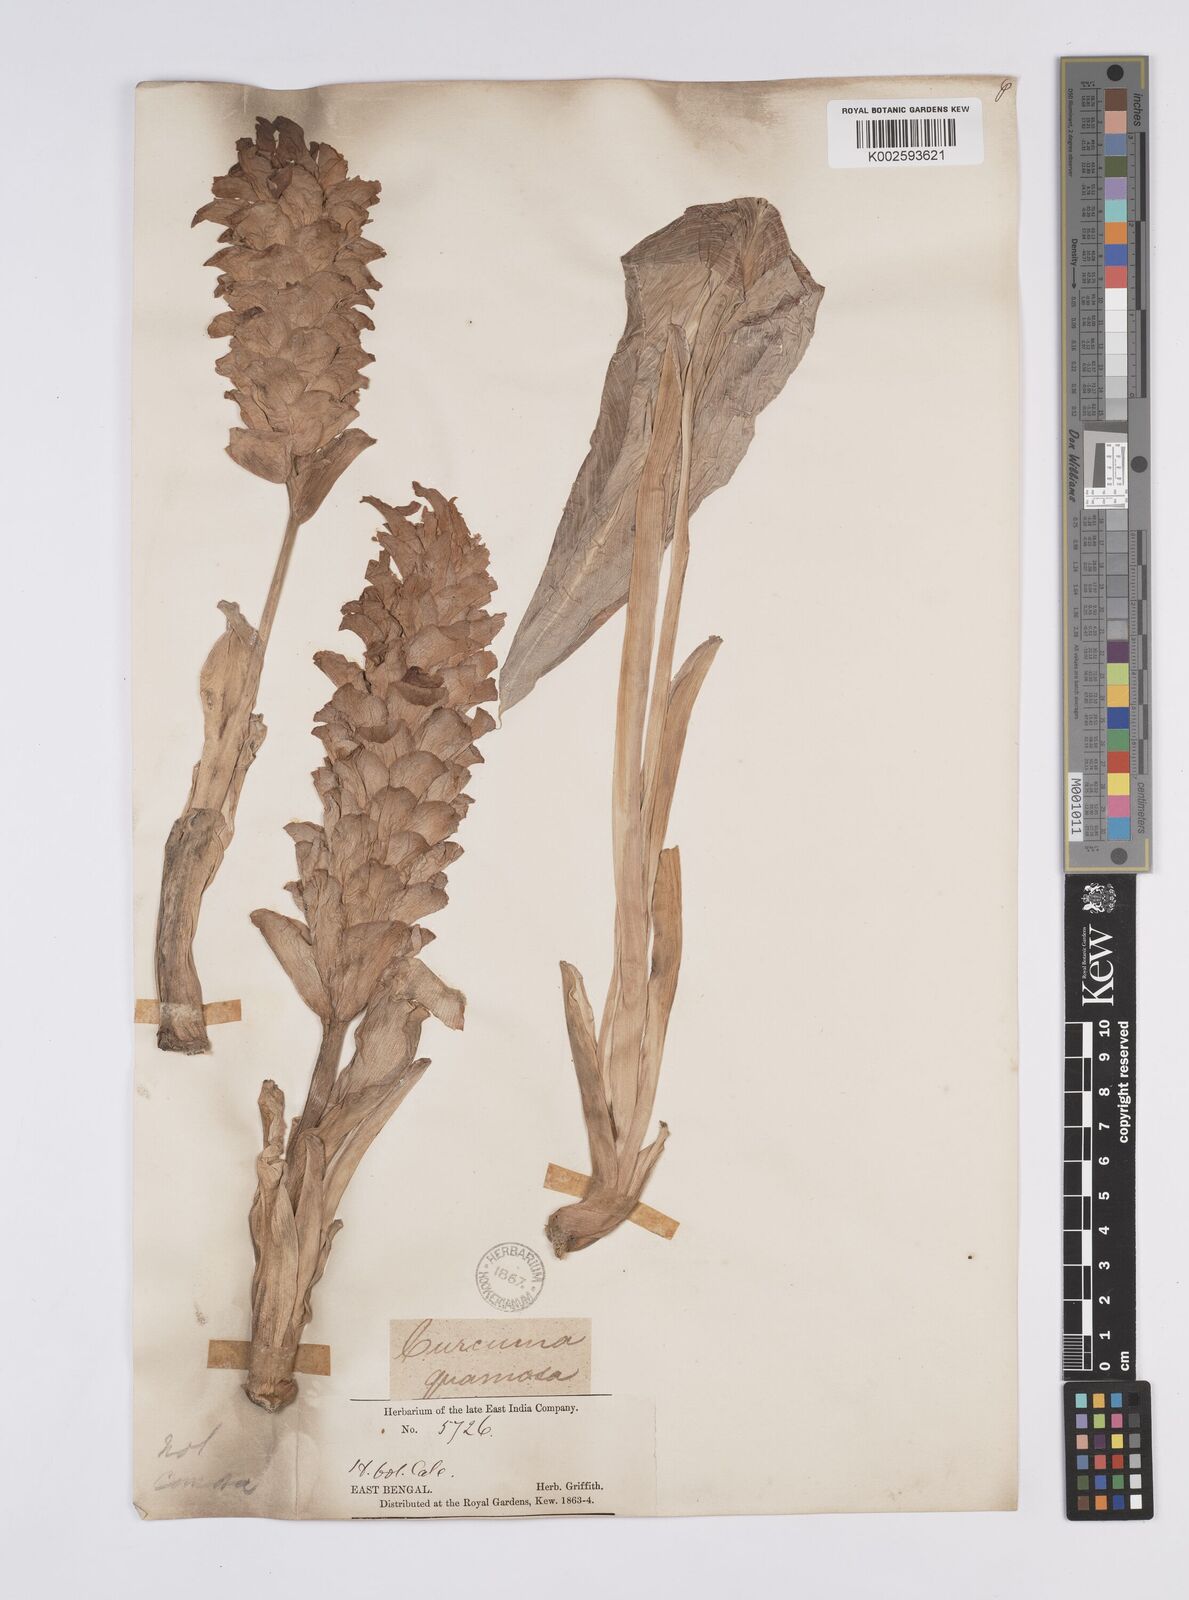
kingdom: Plantae
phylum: Tracheophyta
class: Liliopsida
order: Zingiberales
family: Zingiberaceae
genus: Curcuma
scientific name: Curcuma comosa
